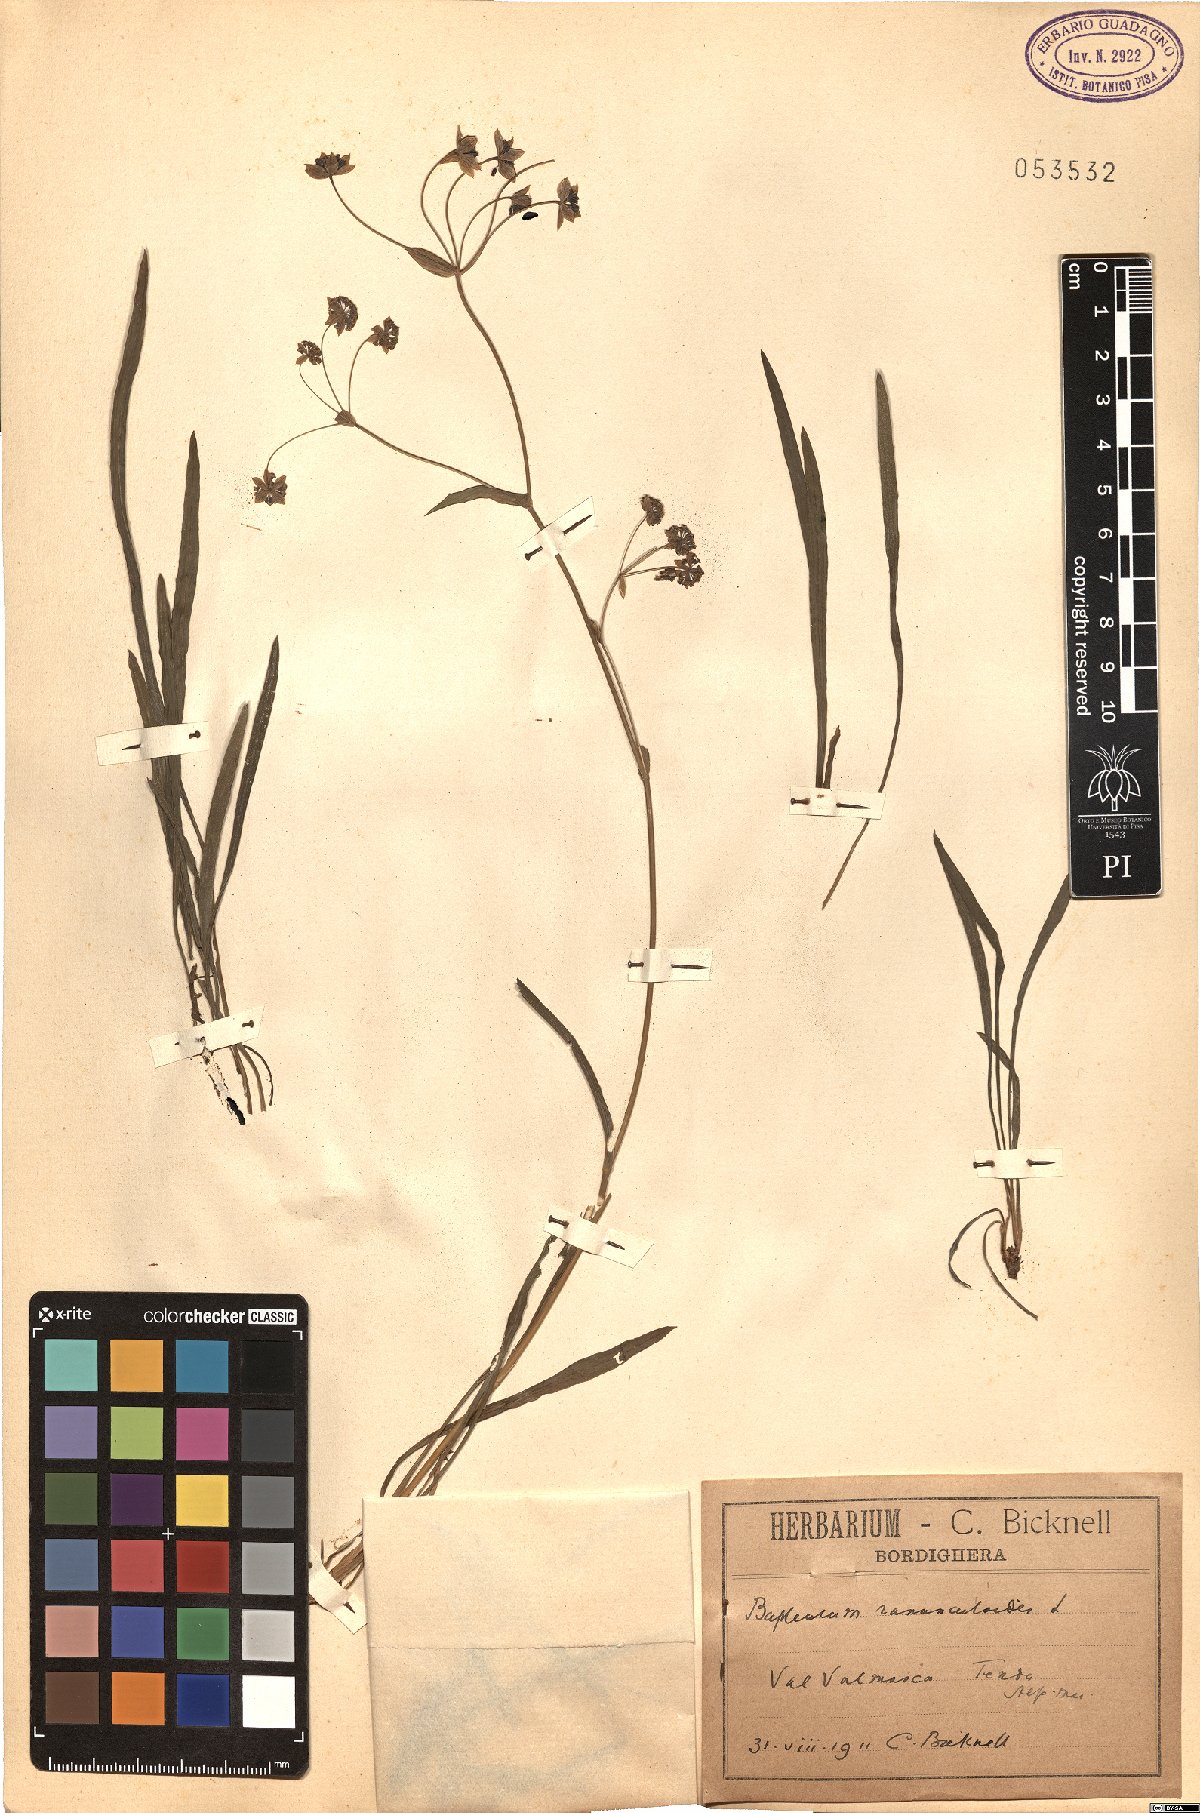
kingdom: Plantae
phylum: Tracheophyta
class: Magnoliopsida
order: Apiales
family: Apiaceae
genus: Bupleurum
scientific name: Bupleurum ranunculoides
